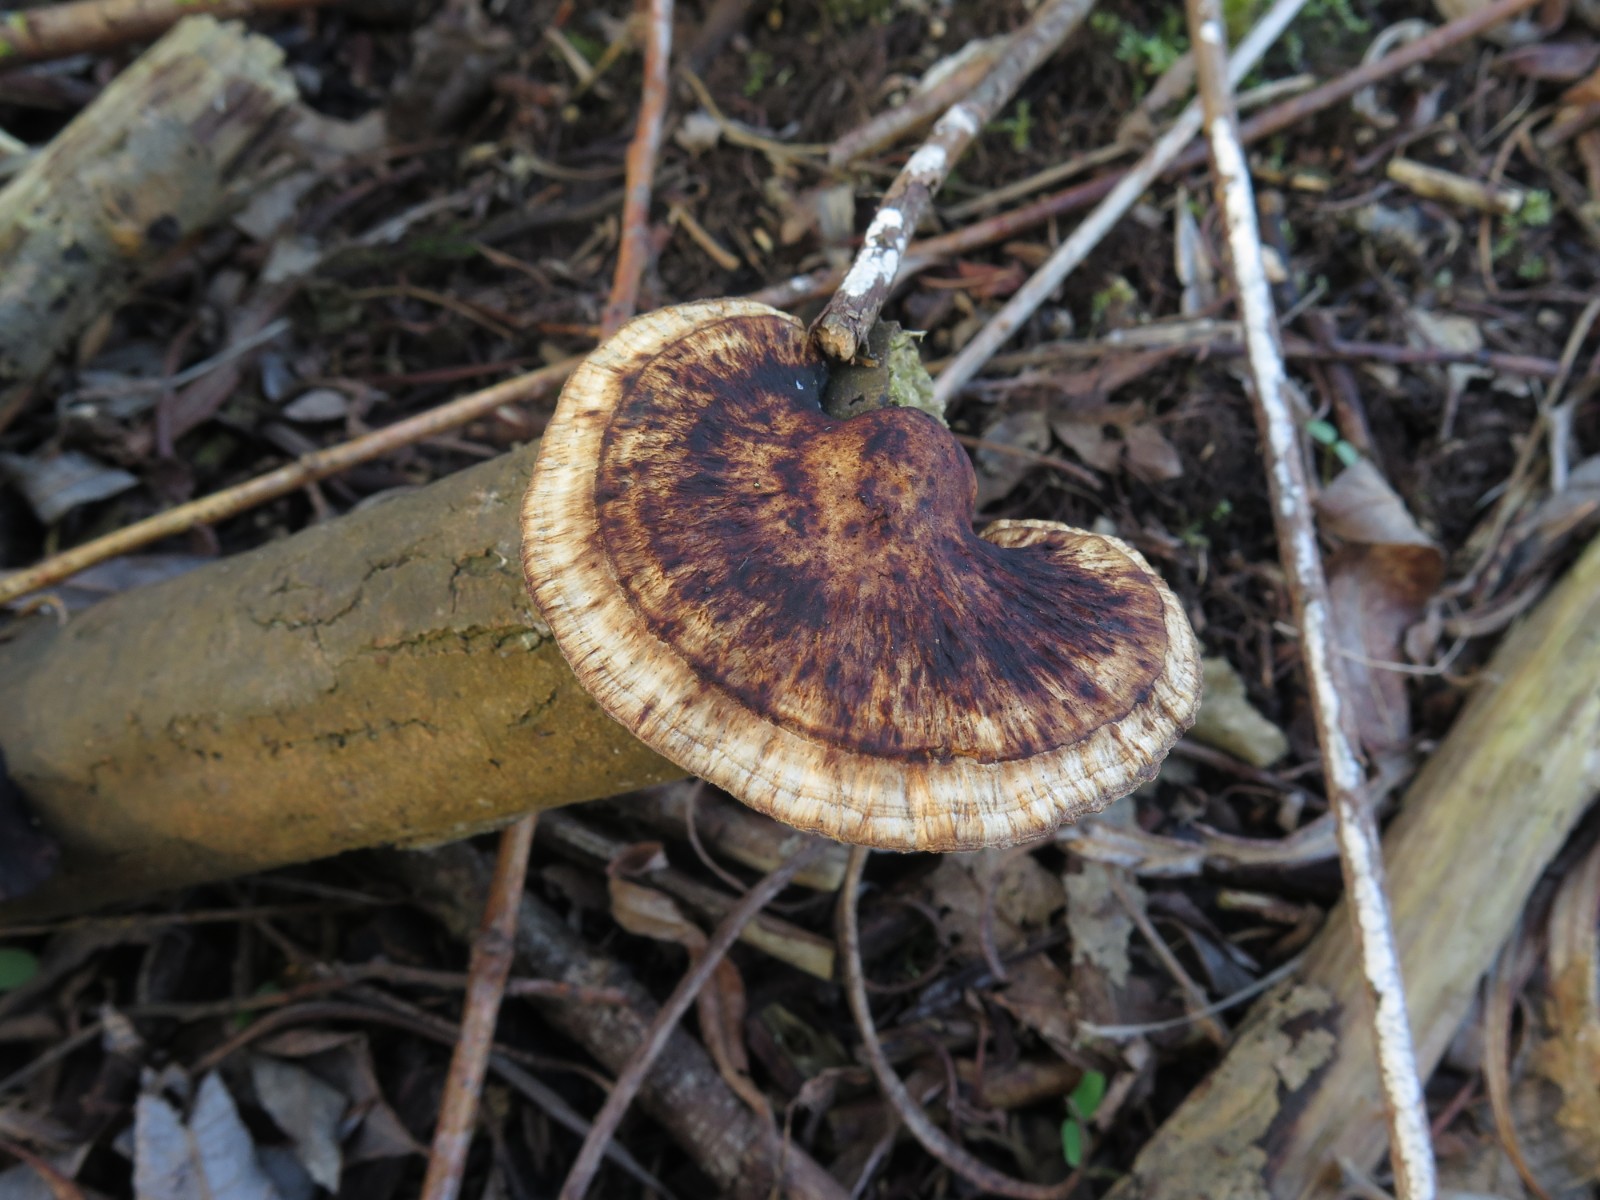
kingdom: Fungi
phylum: Basidiomycota
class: Agaricomycetes
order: Polyporales
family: Polyporaceae
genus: Daedaleopsis
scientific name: Daedaleopsis confragosa
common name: rødmende læderporesvamp
